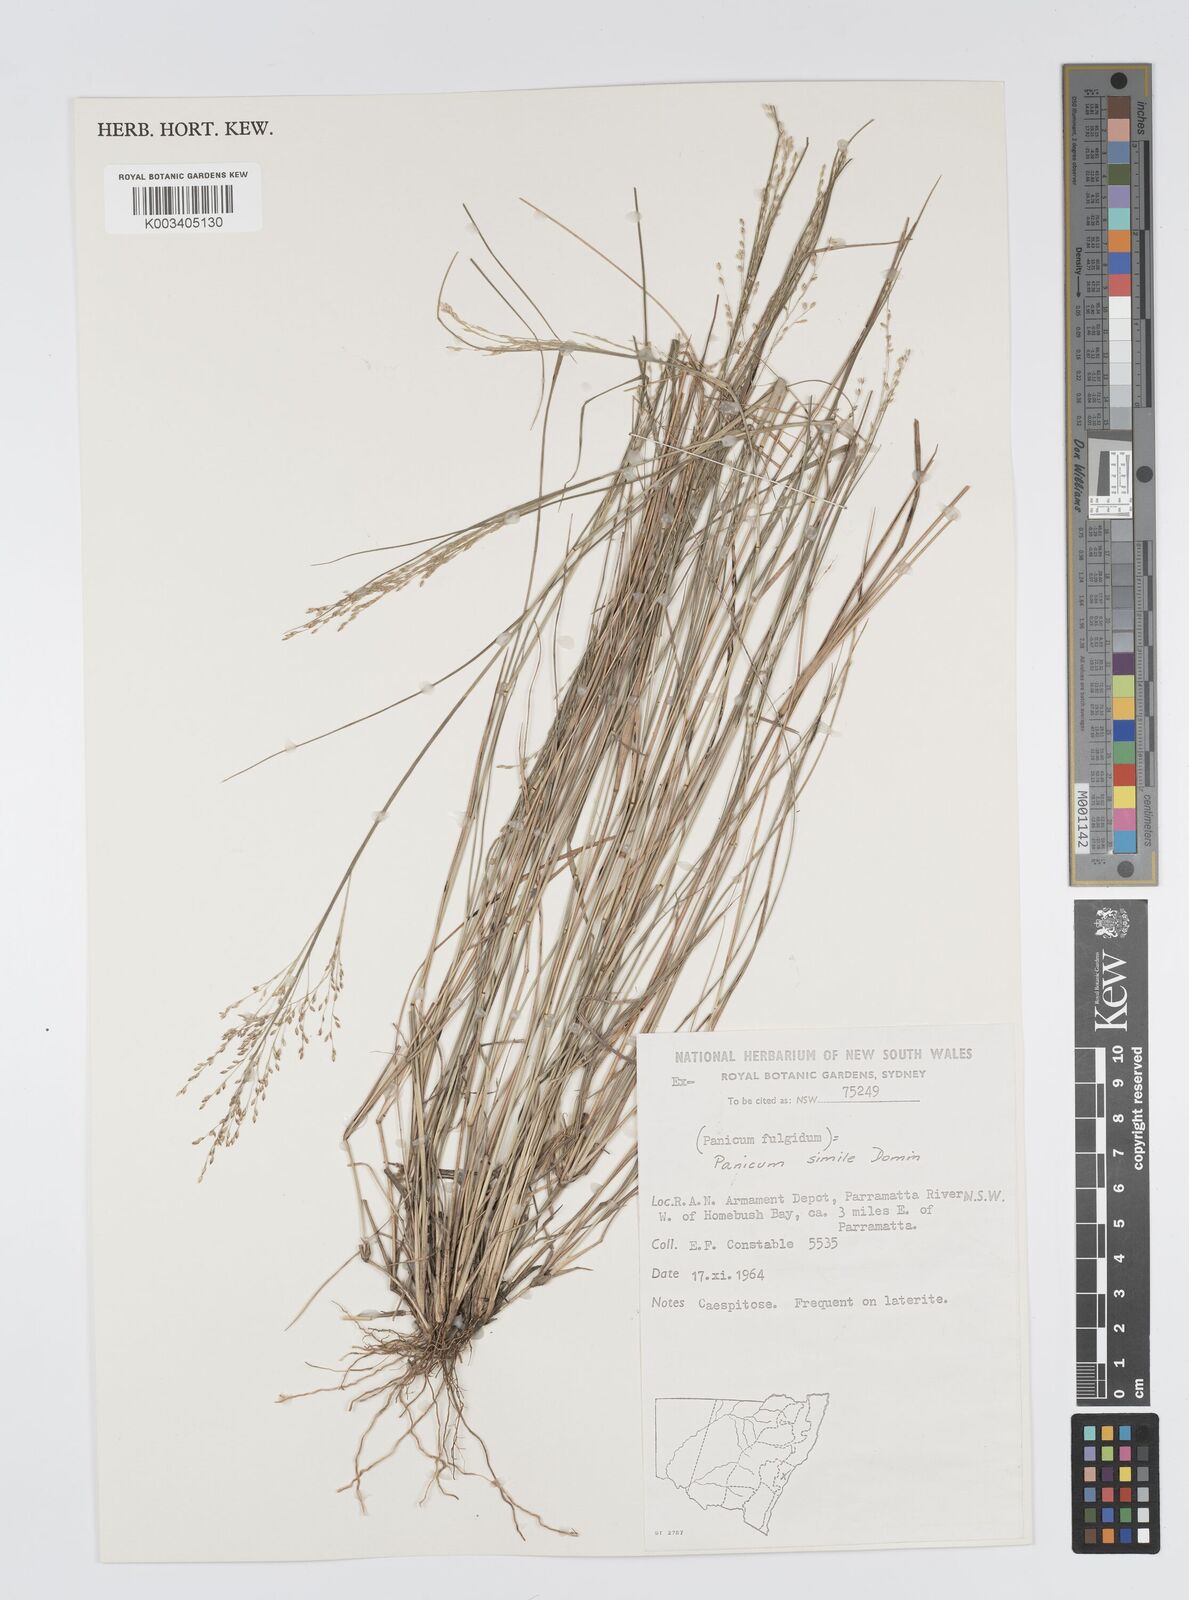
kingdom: Plantae
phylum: Tracheophyta
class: Liliopsida
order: Poales
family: Poaceae
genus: Panicum
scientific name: Panicum simile
